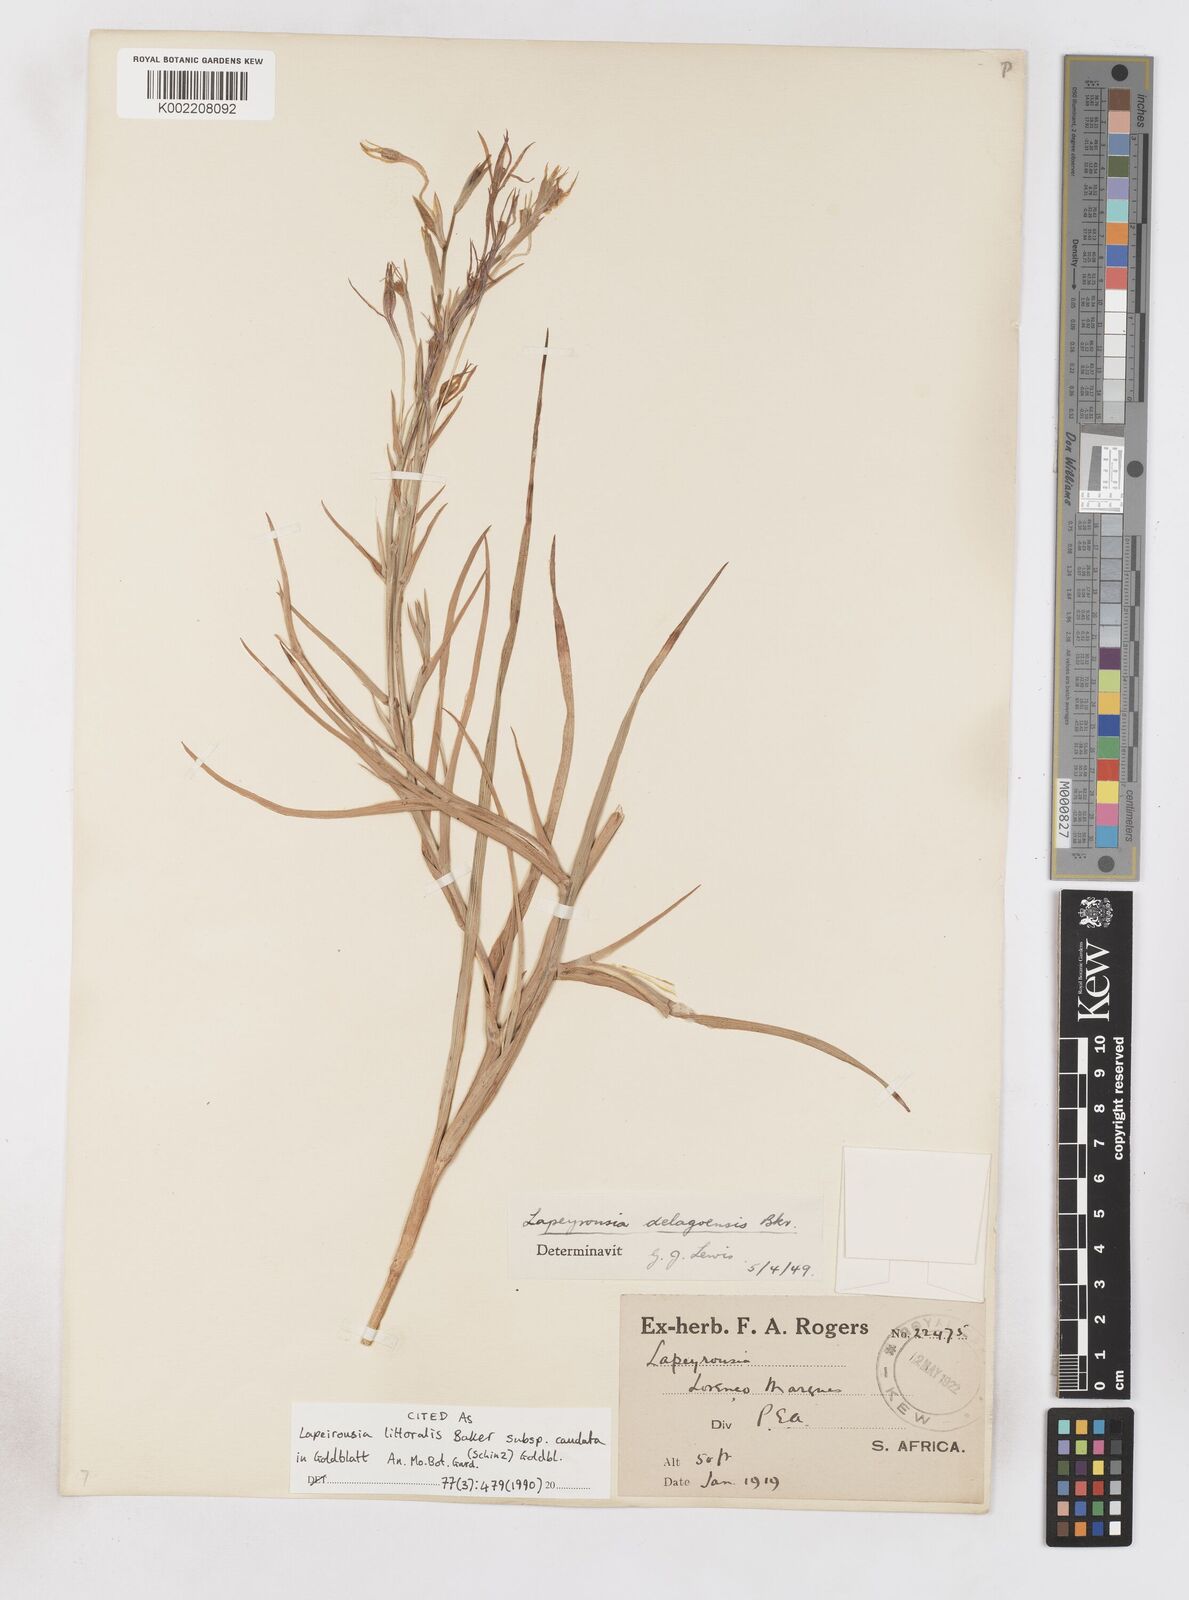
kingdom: Plantae
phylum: Tracheophyta
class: Liliopsida
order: Asparagales
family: Iridaceae
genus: Lapeirousia
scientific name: Lapeirousia caudata
